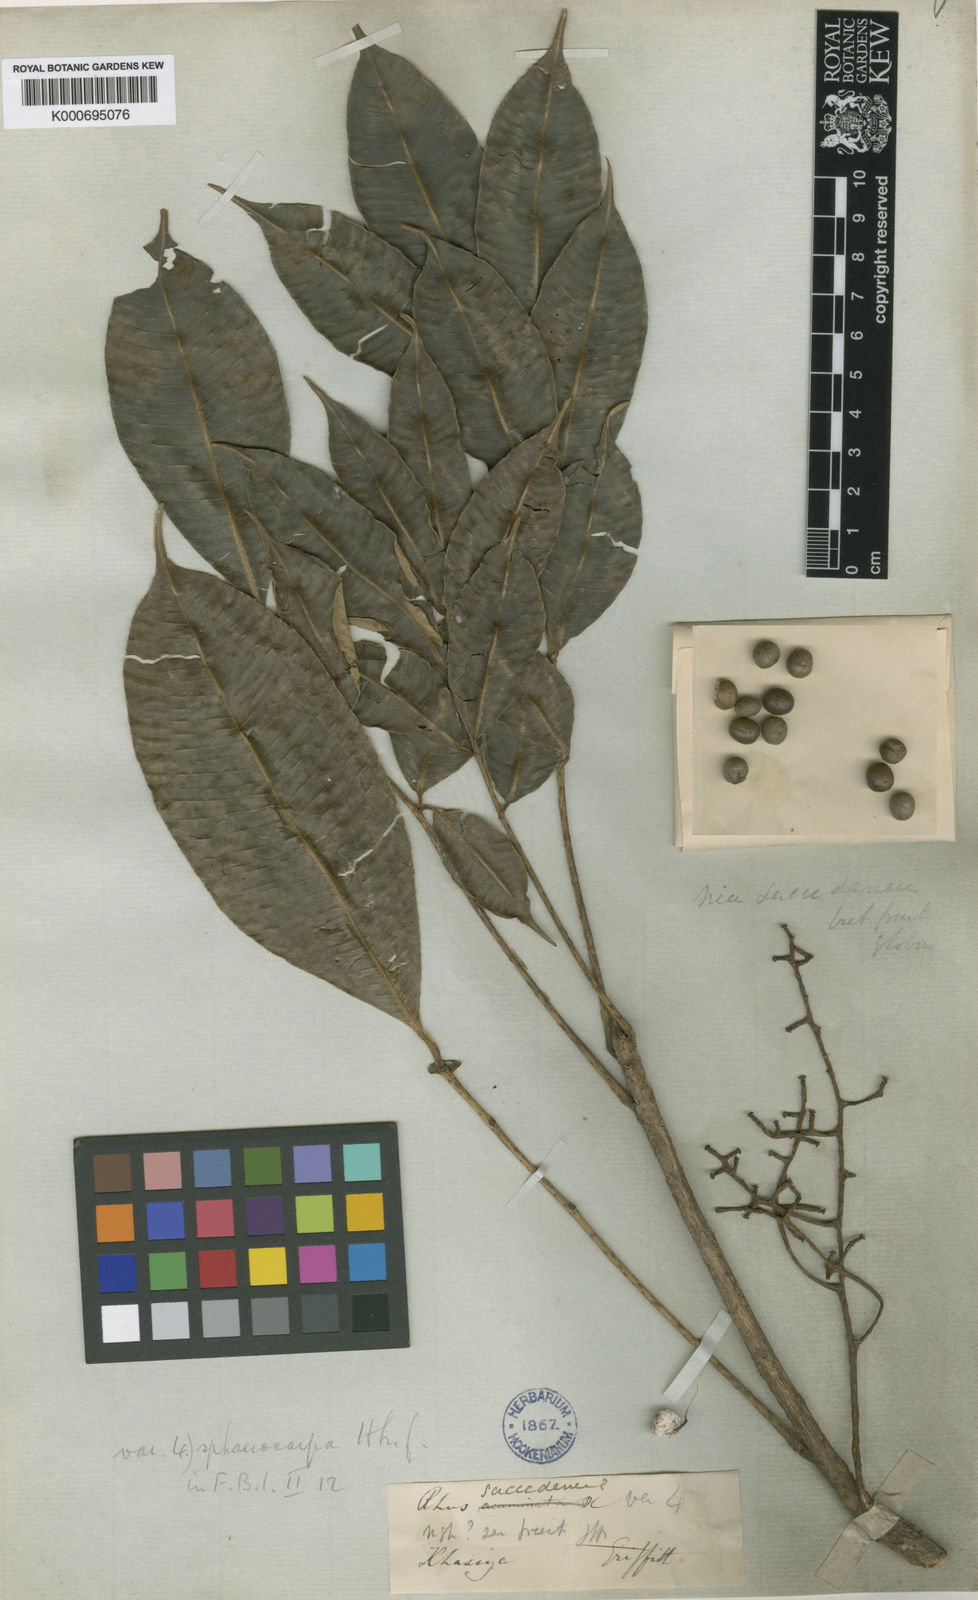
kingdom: Plantae
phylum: Tracheophyta
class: Magnoliopsida
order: Sapindales
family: Anacardiaceae
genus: Toxicodendron
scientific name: Toxicodendron succedaneum
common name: Wax tree
